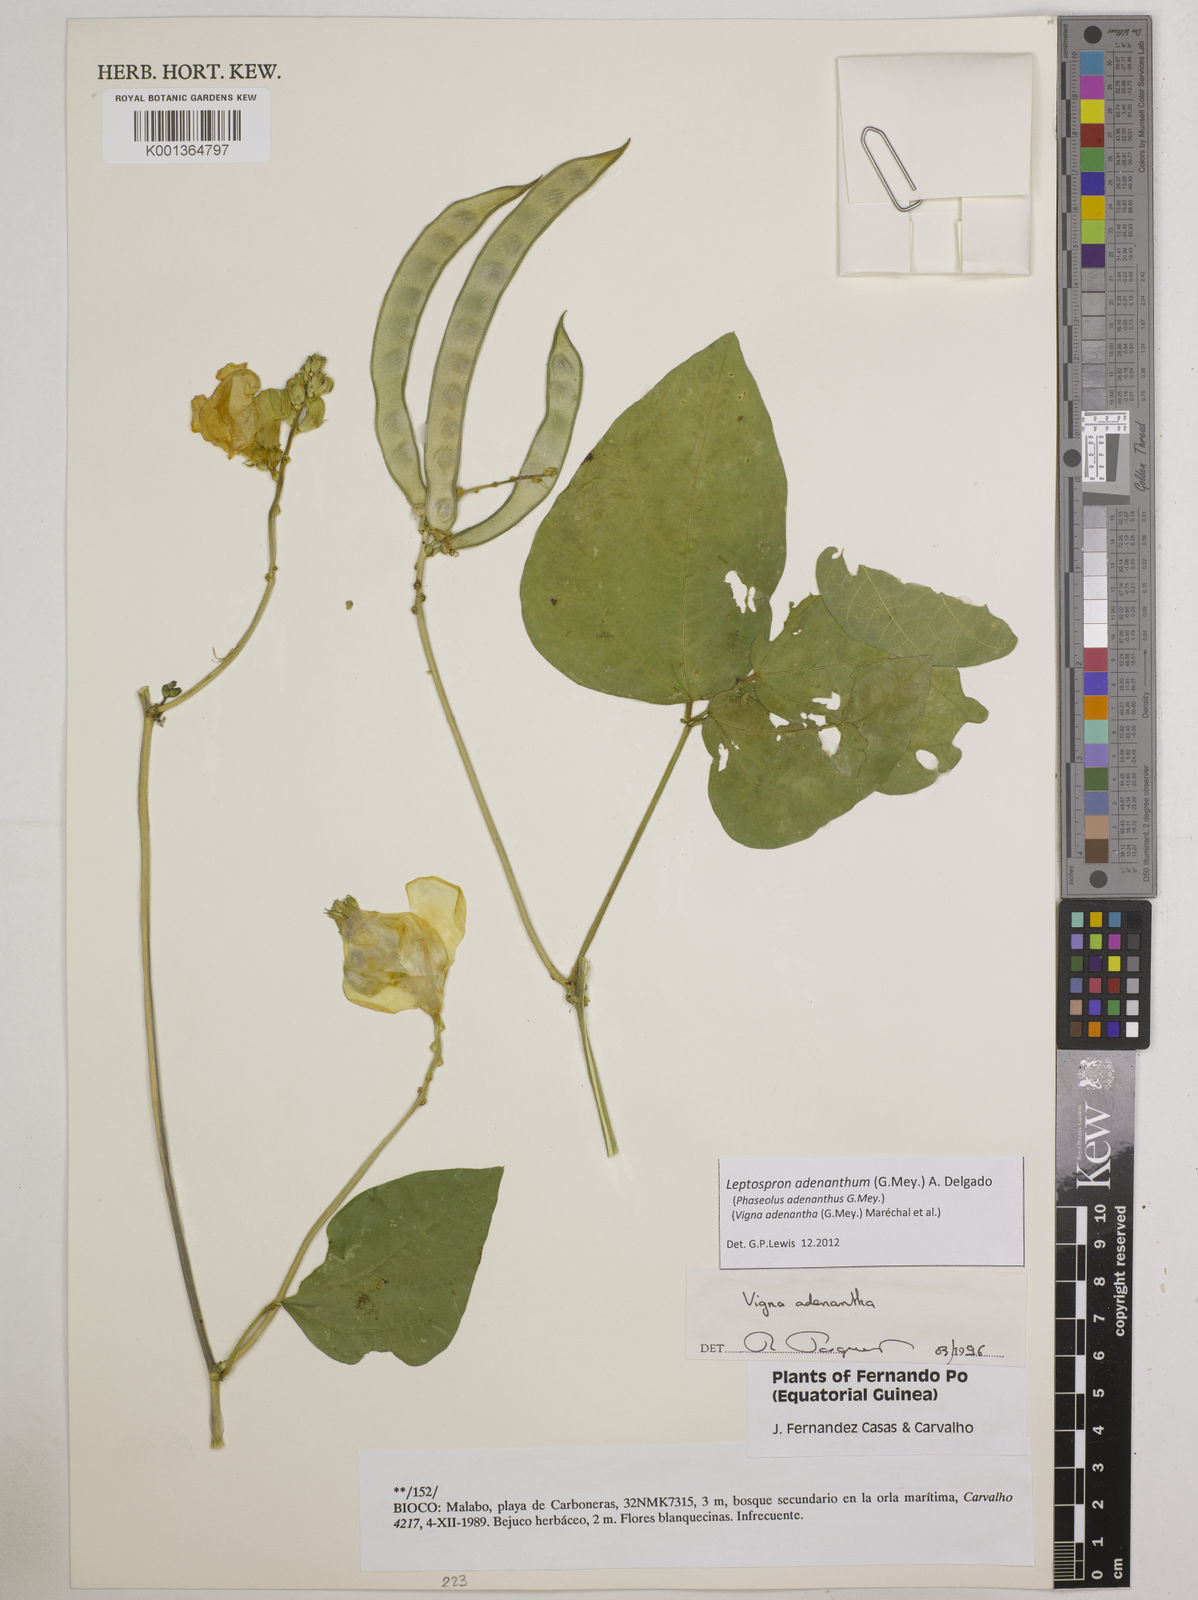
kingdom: Plantae
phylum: Tracheophyta
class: Magnoliopsida
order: Fabales
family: Fabaceae
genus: Leptospron
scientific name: Leptospron adenanthum
